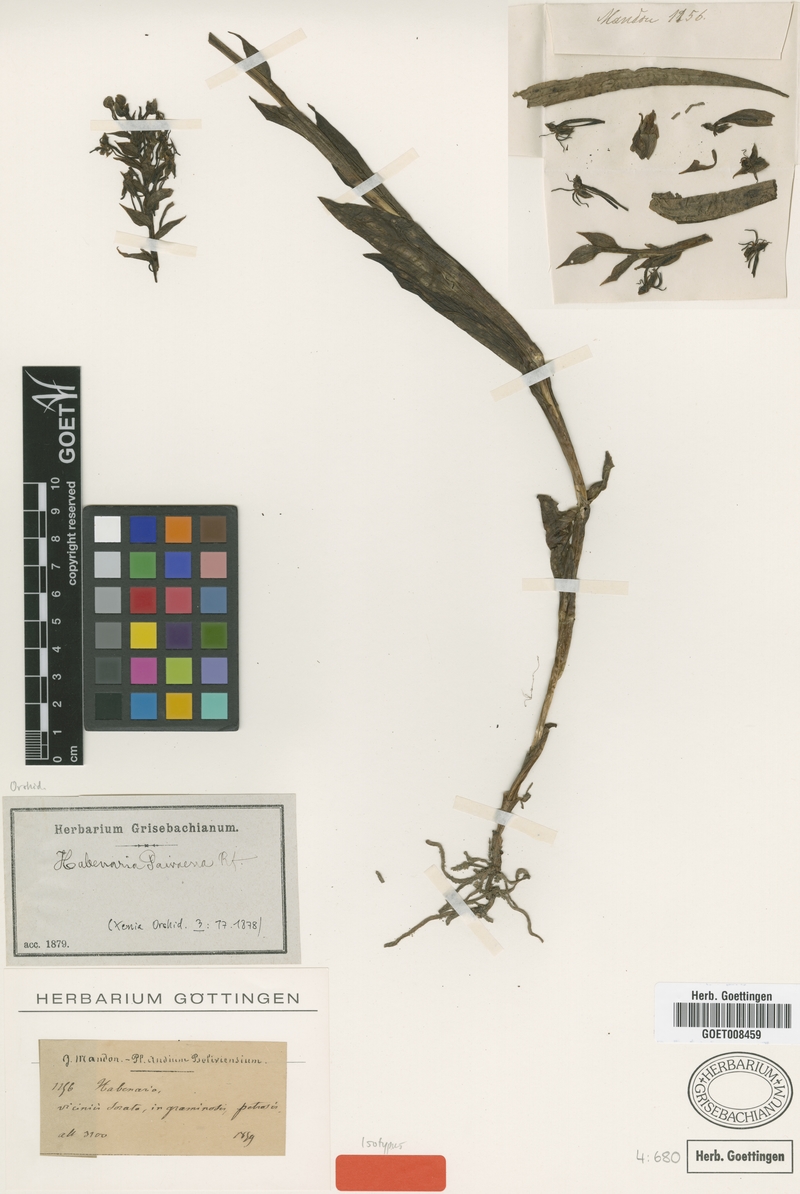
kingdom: Plantae
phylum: Tracheophyta
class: Liliopsida
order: Asparagales
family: Orchidaceae
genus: Habenaria
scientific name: Habenaria paivaeana
